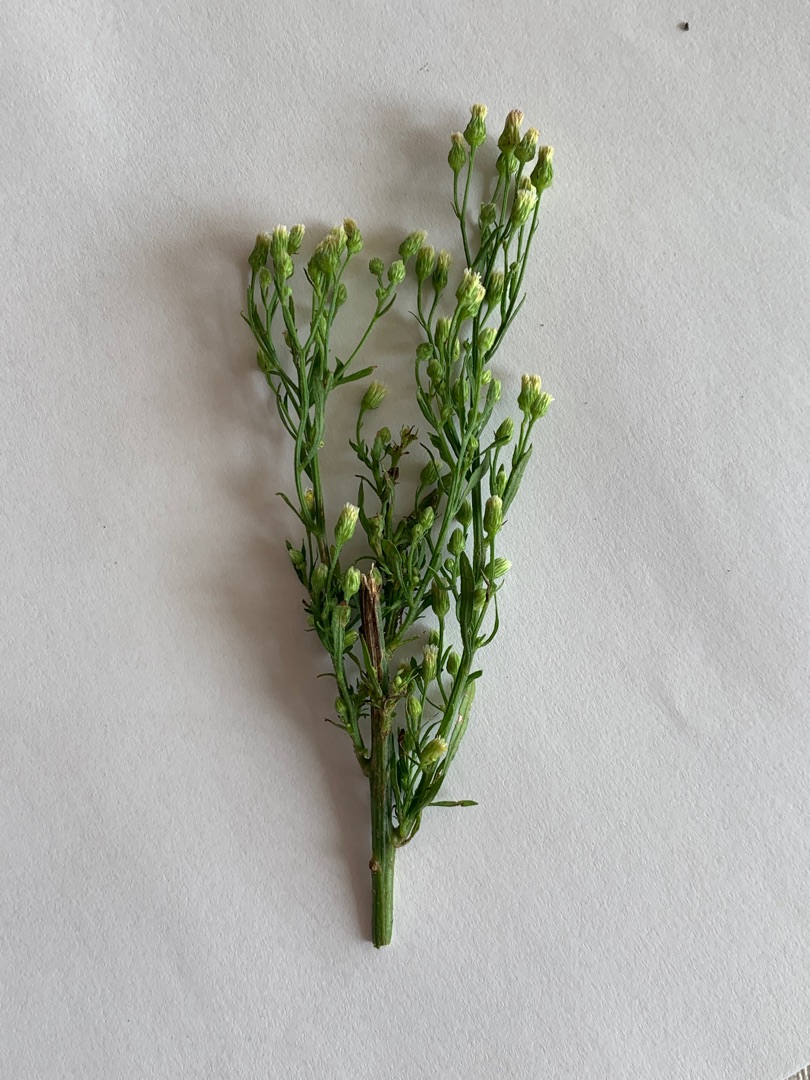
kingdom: Plantae
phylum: Tracheophyta
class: Magnoliopsida
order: Asterales
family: Asteraceae
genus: Erigeron
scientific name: Erigeron canadensis
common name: Kanadisk bakkestjerne
